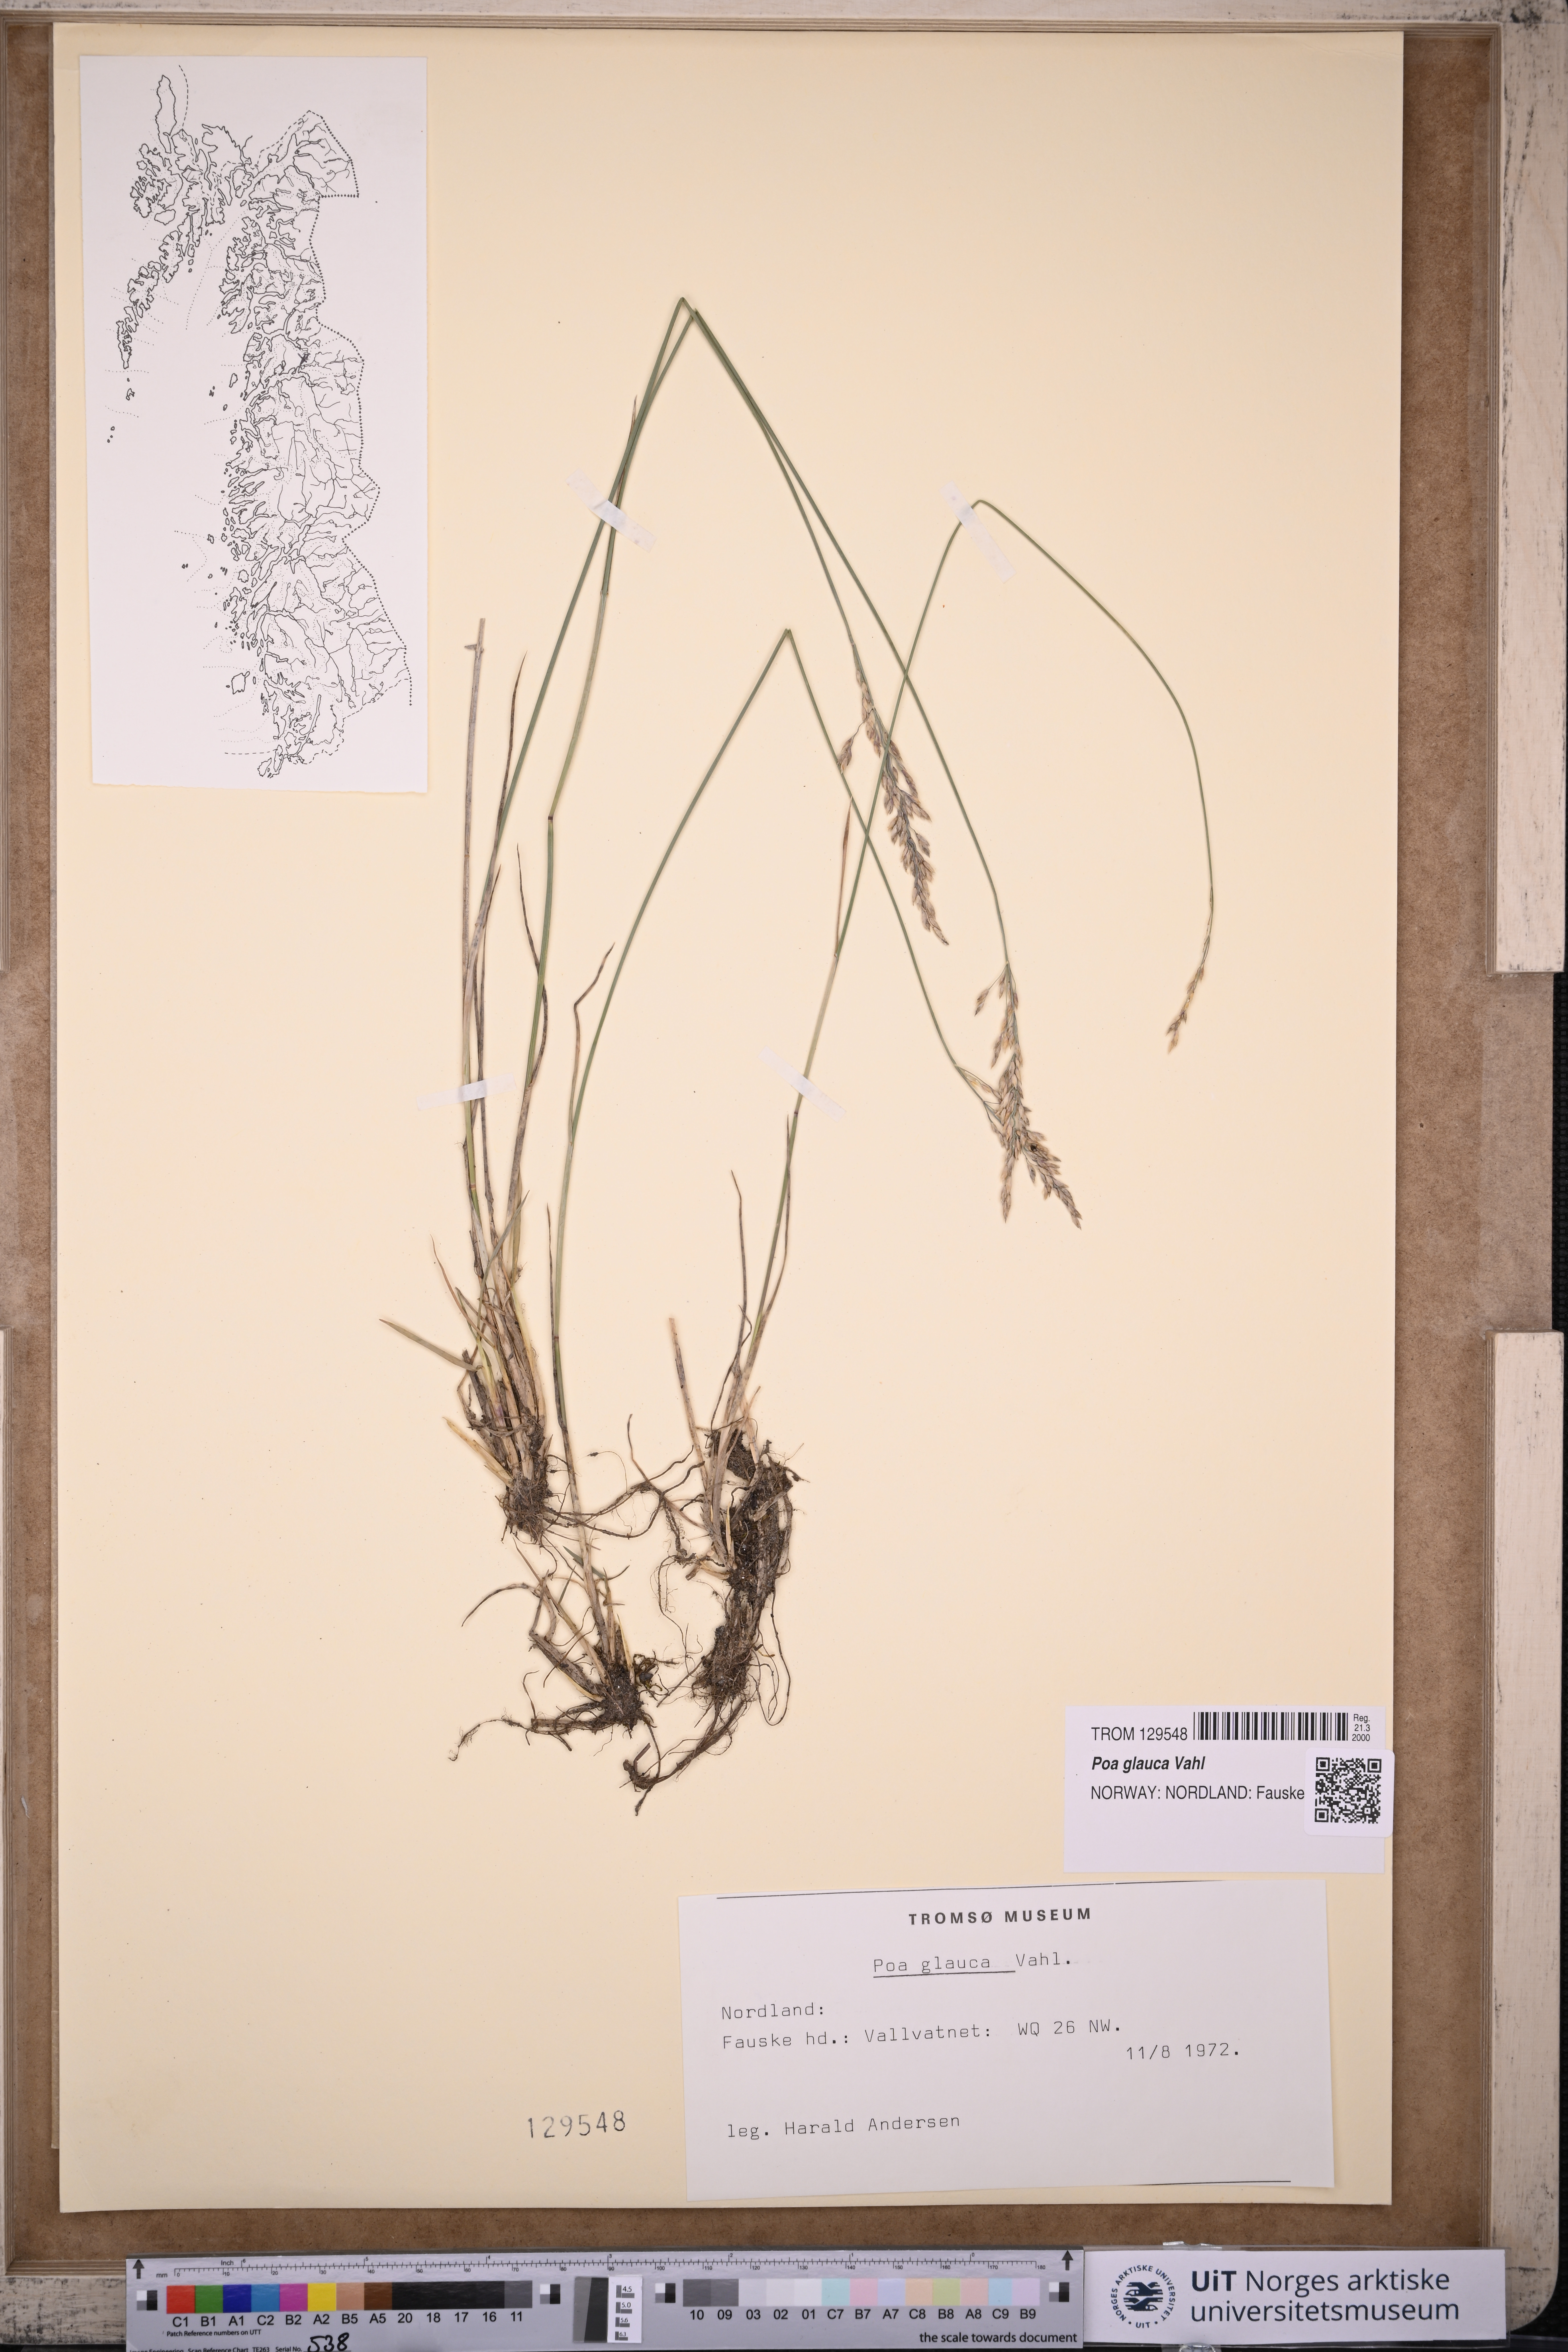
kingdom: Plantae
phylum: Tracheophyta
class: Liliopsida
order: Poales
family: Poaceae
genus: Poa
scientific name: Poa glauca
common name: Glaucous bluegrass
